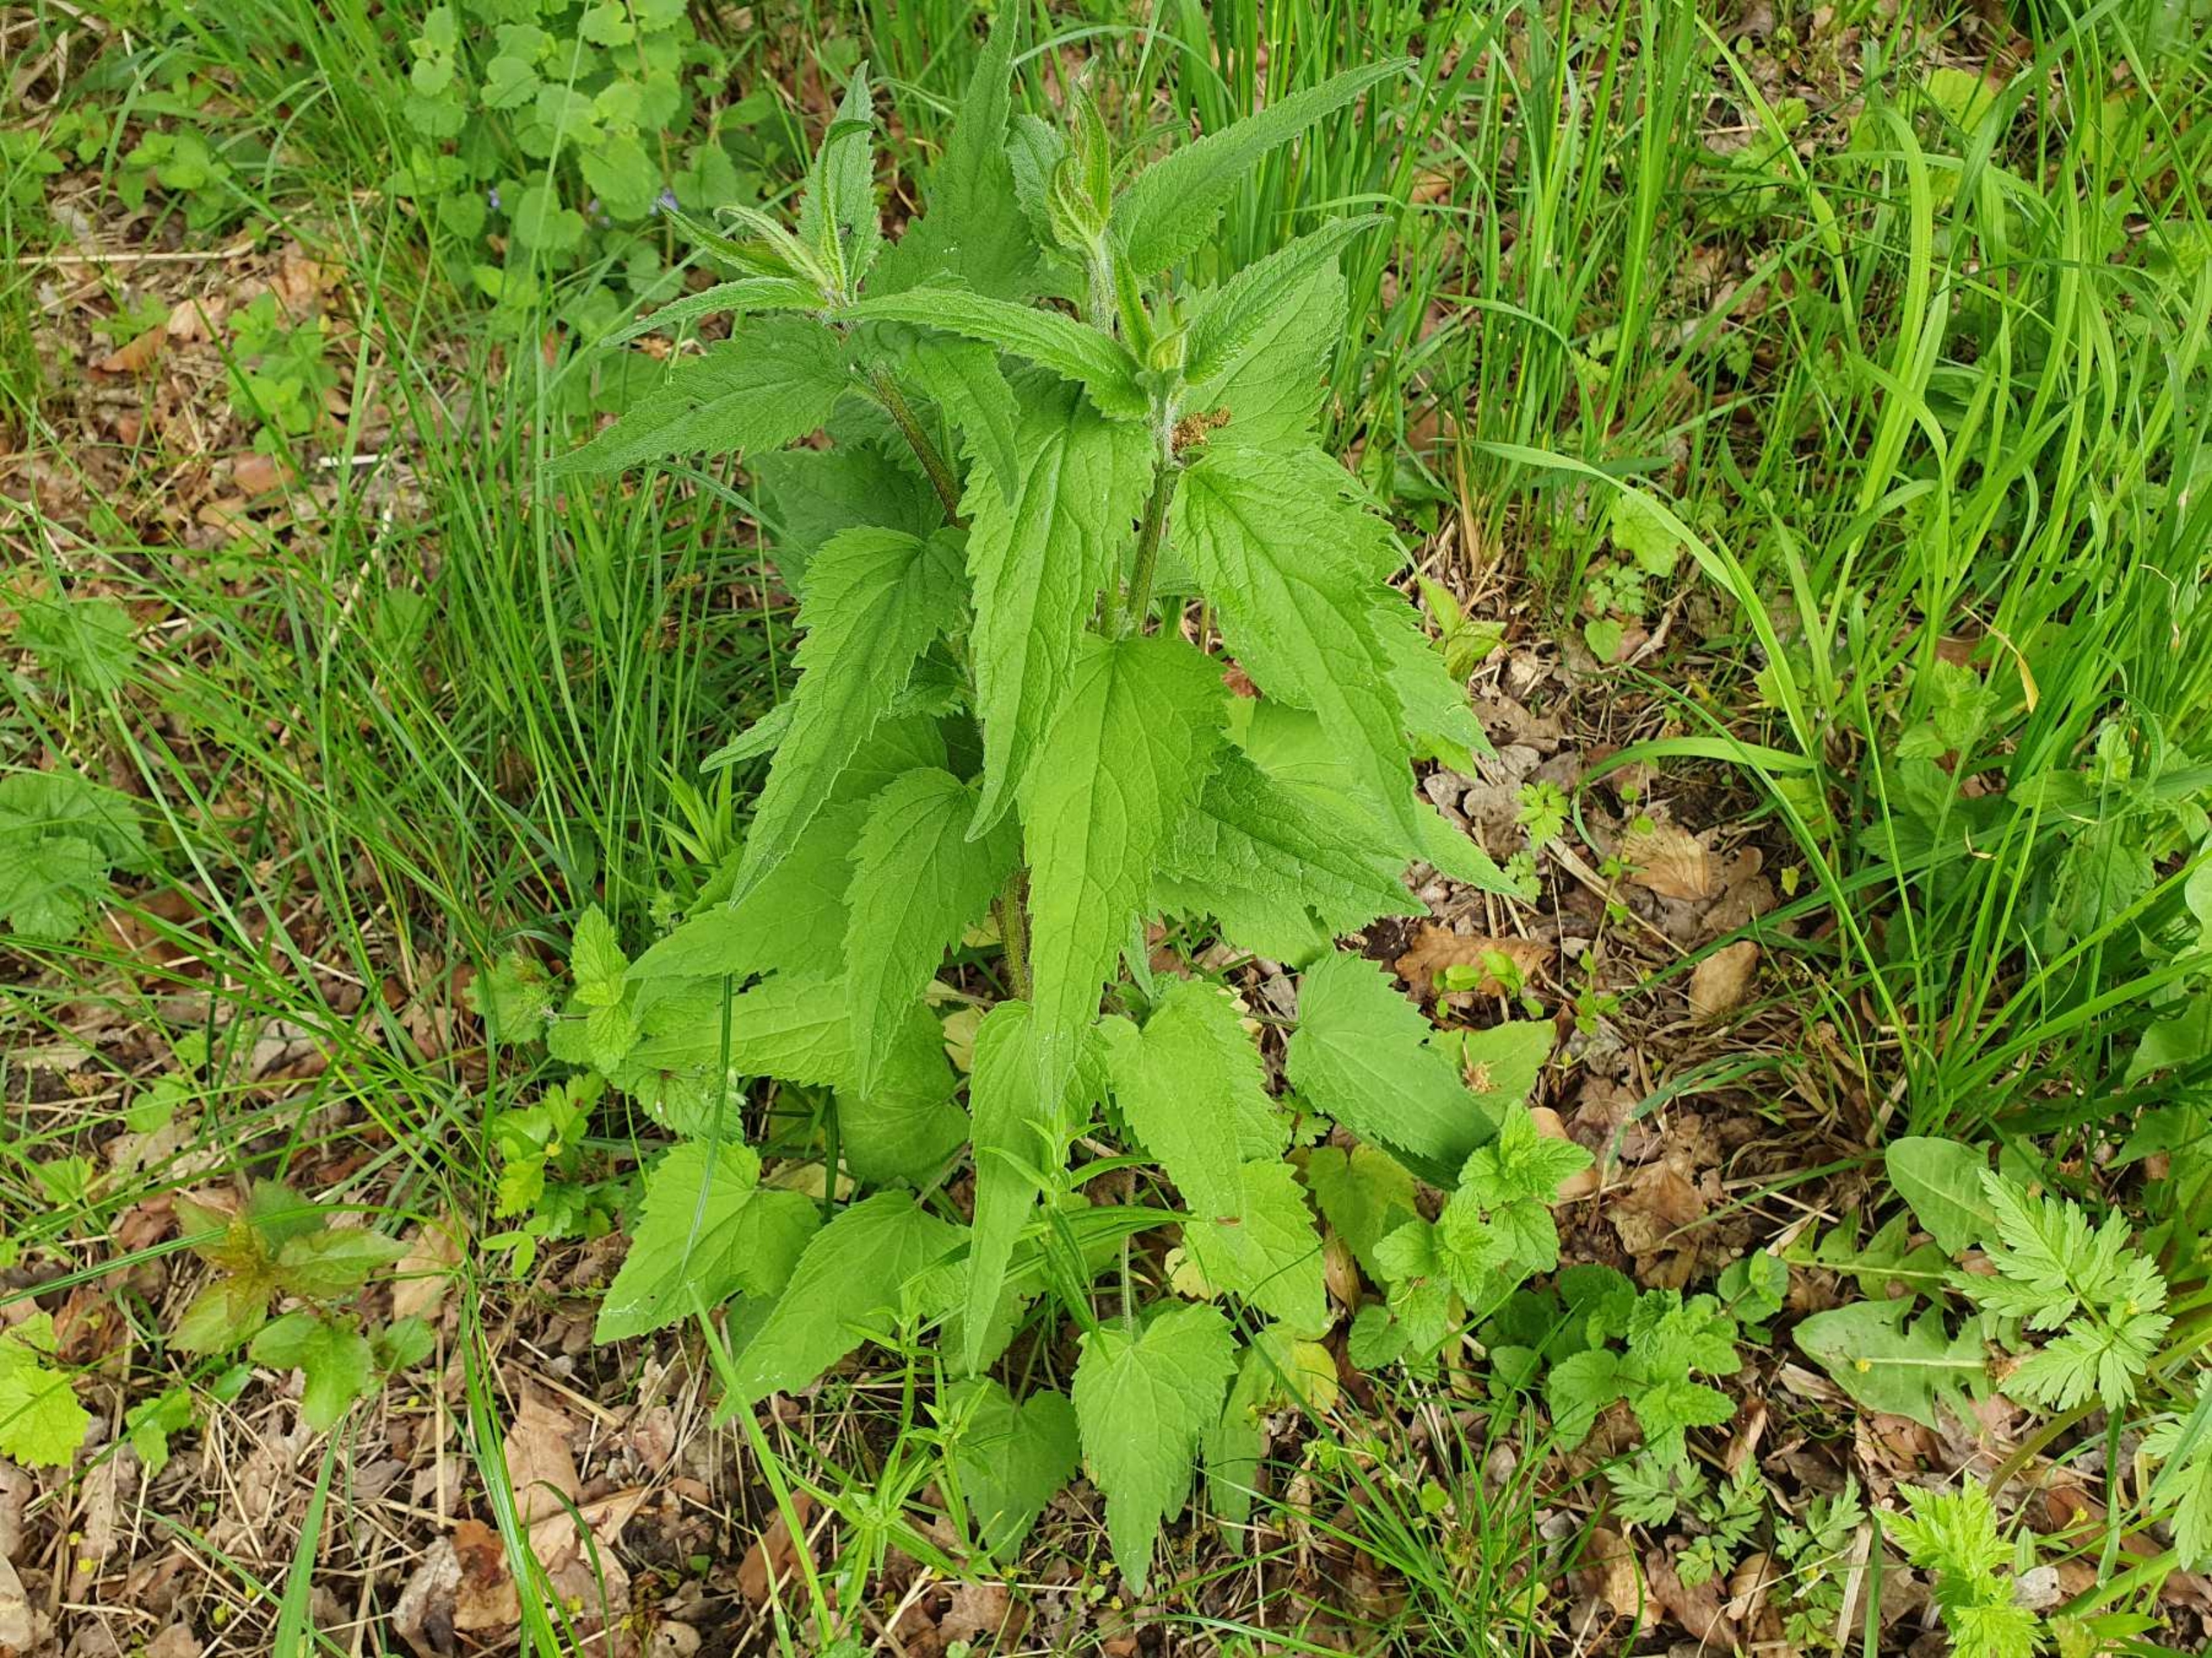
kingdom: Plantae
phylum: Tracheophyta
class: Magnoliopsida
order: Asterales
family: Campanulaceae
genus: Campanula
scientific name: Campanula trachelium
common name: Nælde-klokke
